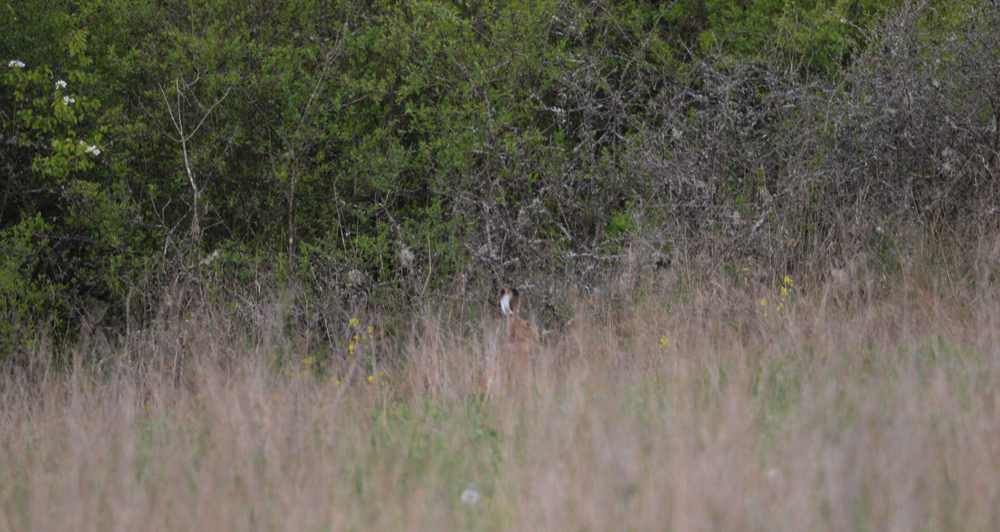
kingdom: Animalia
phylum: Chordata
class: Mammalia
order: Lagomorpha
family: Leporidae
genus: Lepus
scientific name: Lepus europaeus
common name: European hare
